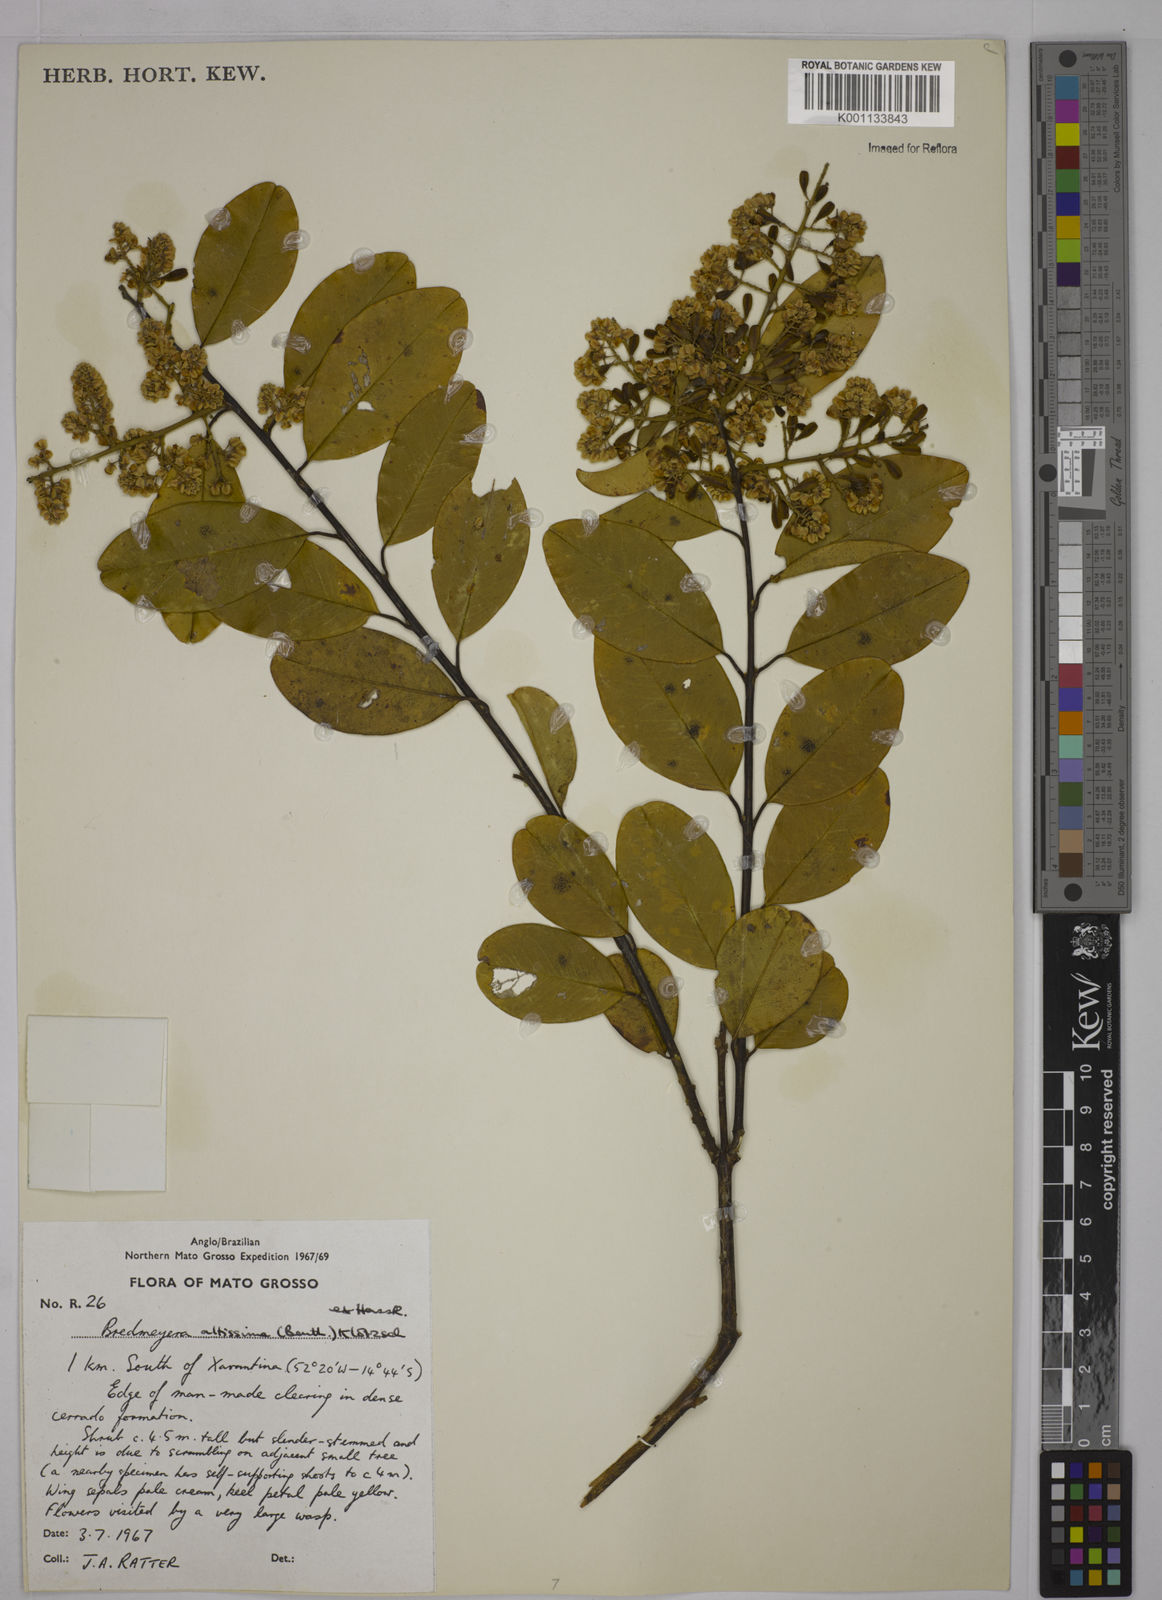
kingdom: Plantae
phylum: Tracheophyta
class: Magnoliopsida
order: Fabales
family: Polygalaceae
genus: Bredemeyera
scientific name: Bredemeyera divaricata
